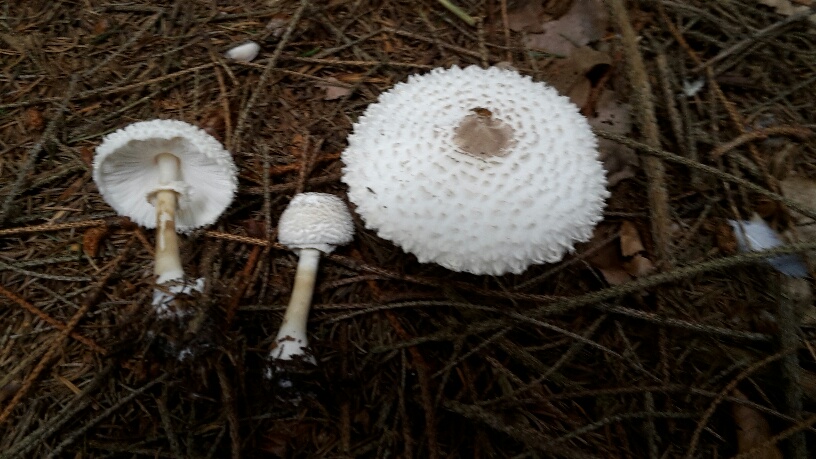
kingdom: Fungi
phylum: Basidiomycota
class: Agaricomycetes
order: Agaricales
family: Agaricaceae
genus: Leucoagaricus
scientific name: Leucoagaricus nympharum
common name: gran-silkehat
